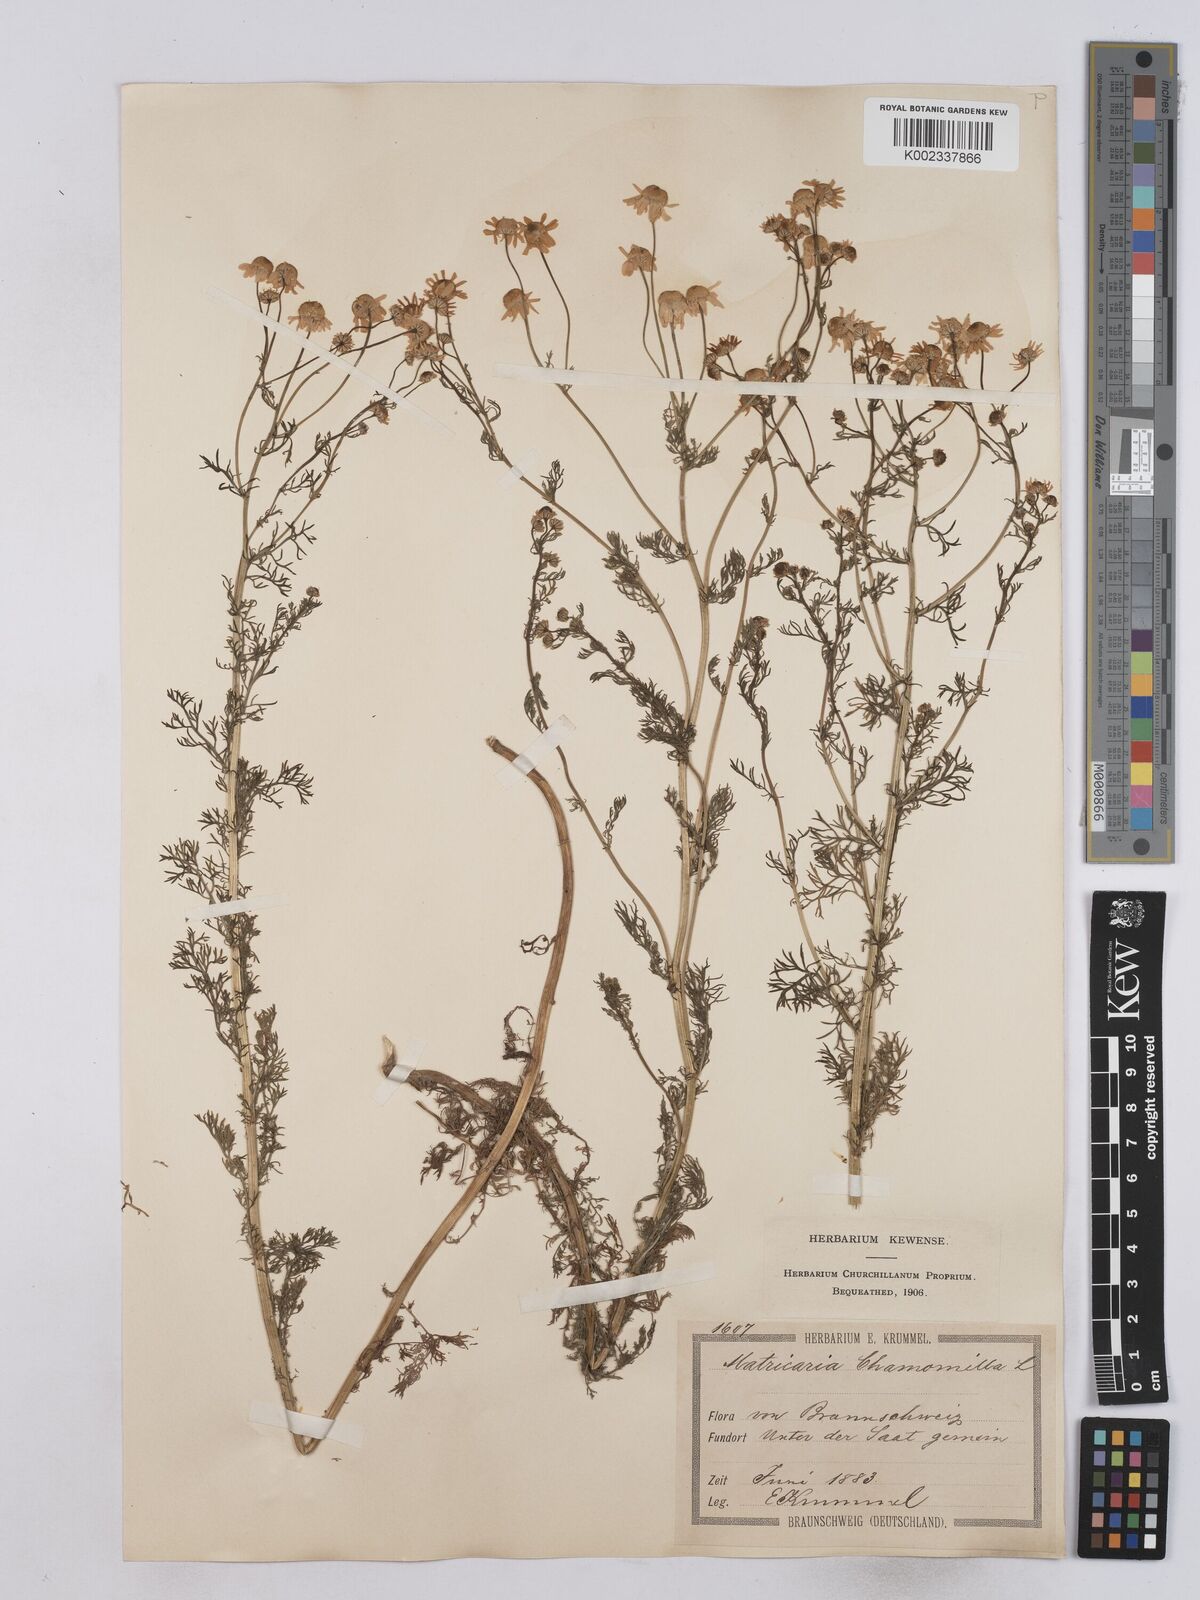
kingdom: Plantae
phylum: Tracheophyta
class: Magnoliopsida
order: Asterales
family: Asteraceae
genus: Matricaria
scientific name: Matricaria chamomilla
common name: Scented mayweed
